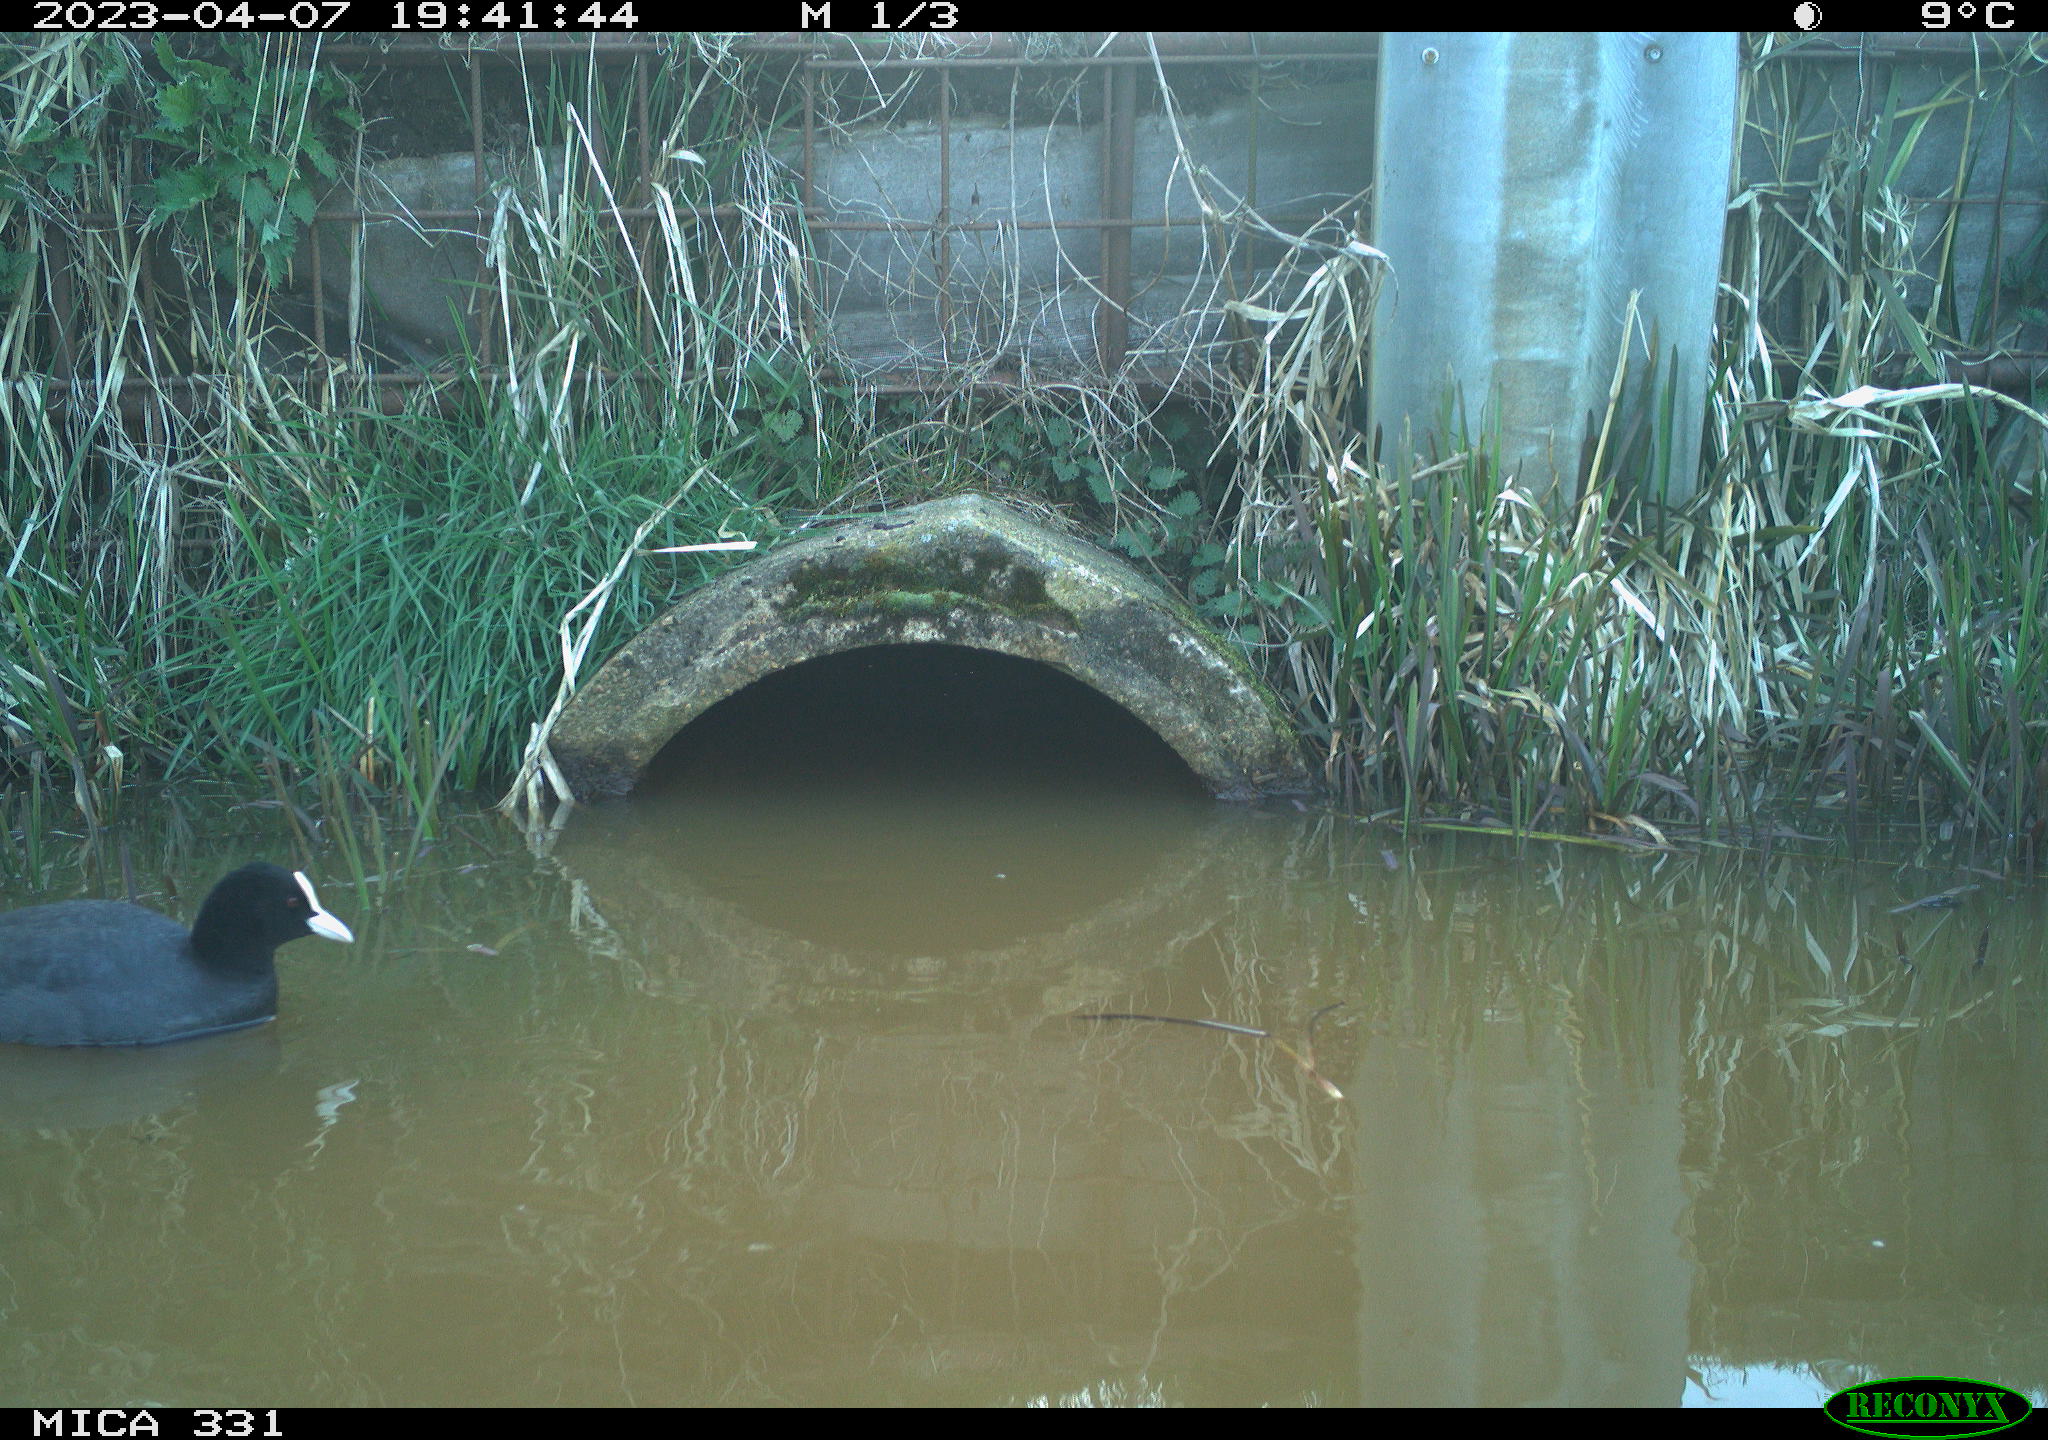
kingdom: Animalia
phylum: Chordata
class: Aves
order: Gruiformes
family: Rallidae
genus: Fulica
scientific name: Fulica atra
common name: Eurasian coot
